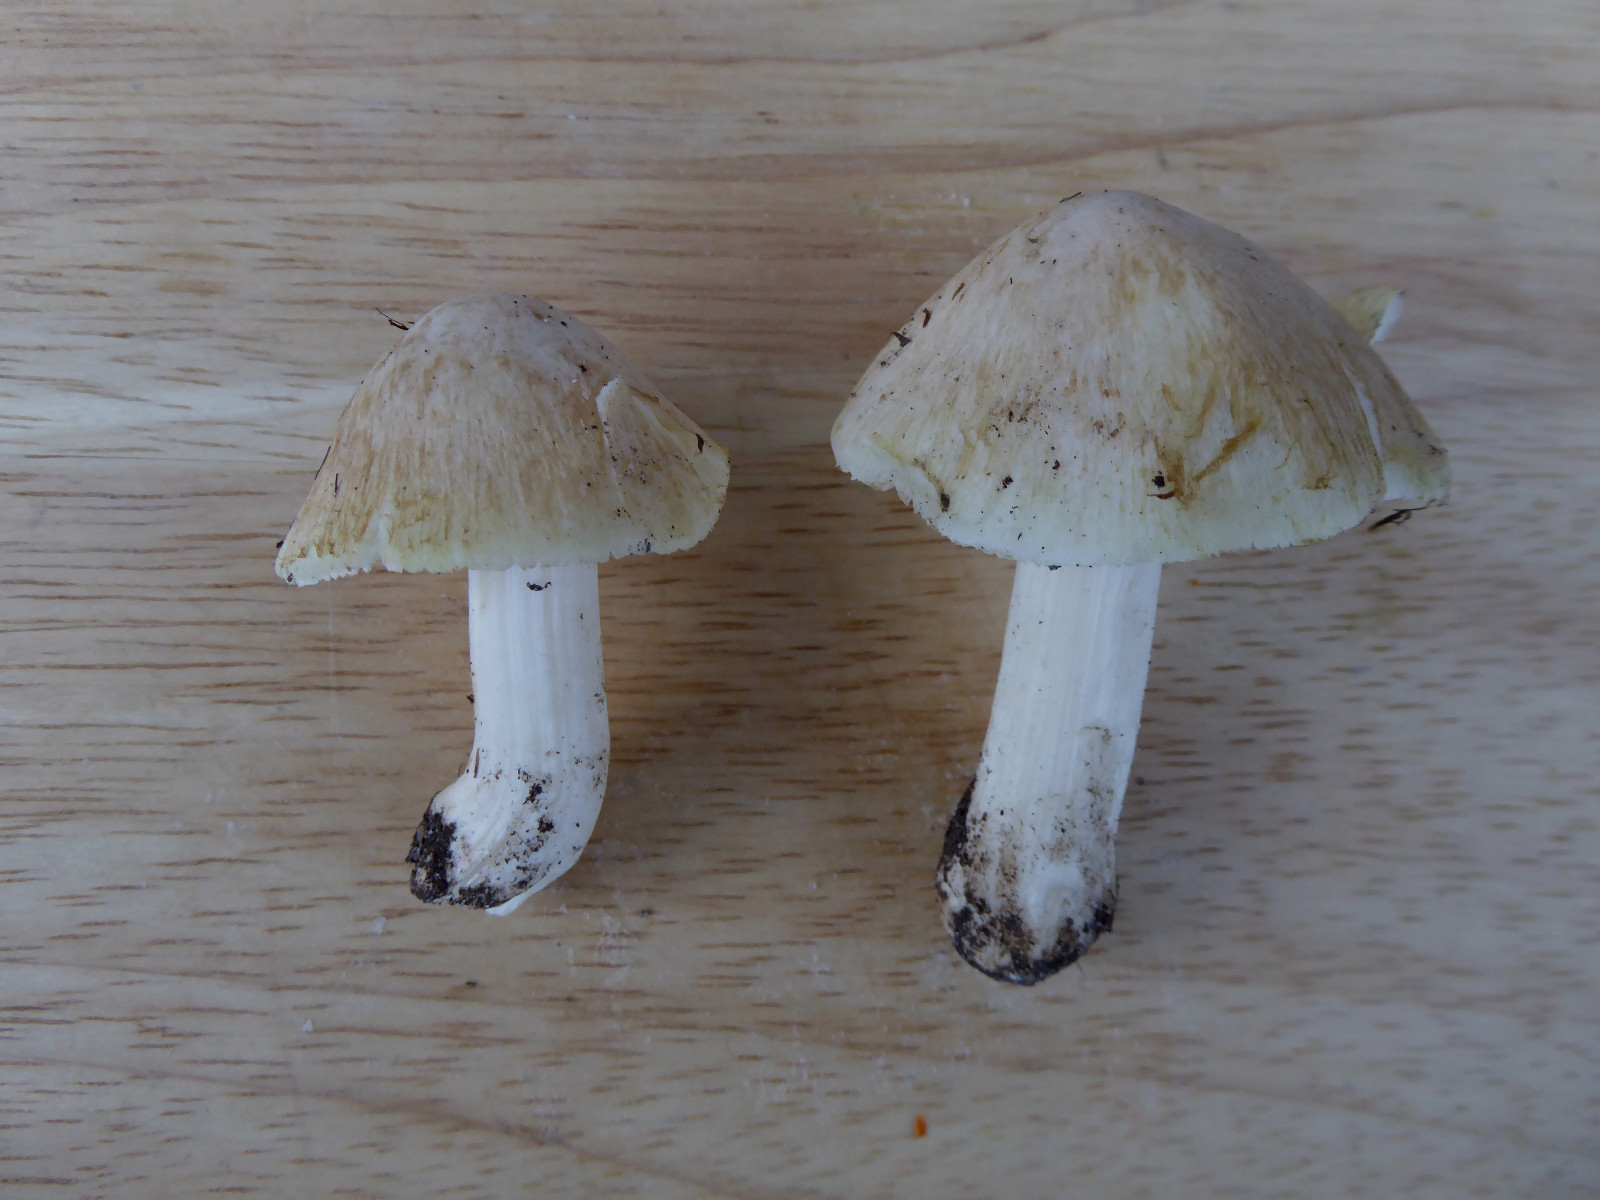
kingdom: Fungi
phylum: Basidiomycota
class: Agaricomycetes
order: Agaricales
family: Inocybaceae
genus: Inosperma
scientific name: Inosperma erubescens
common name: giftig trævlhat
